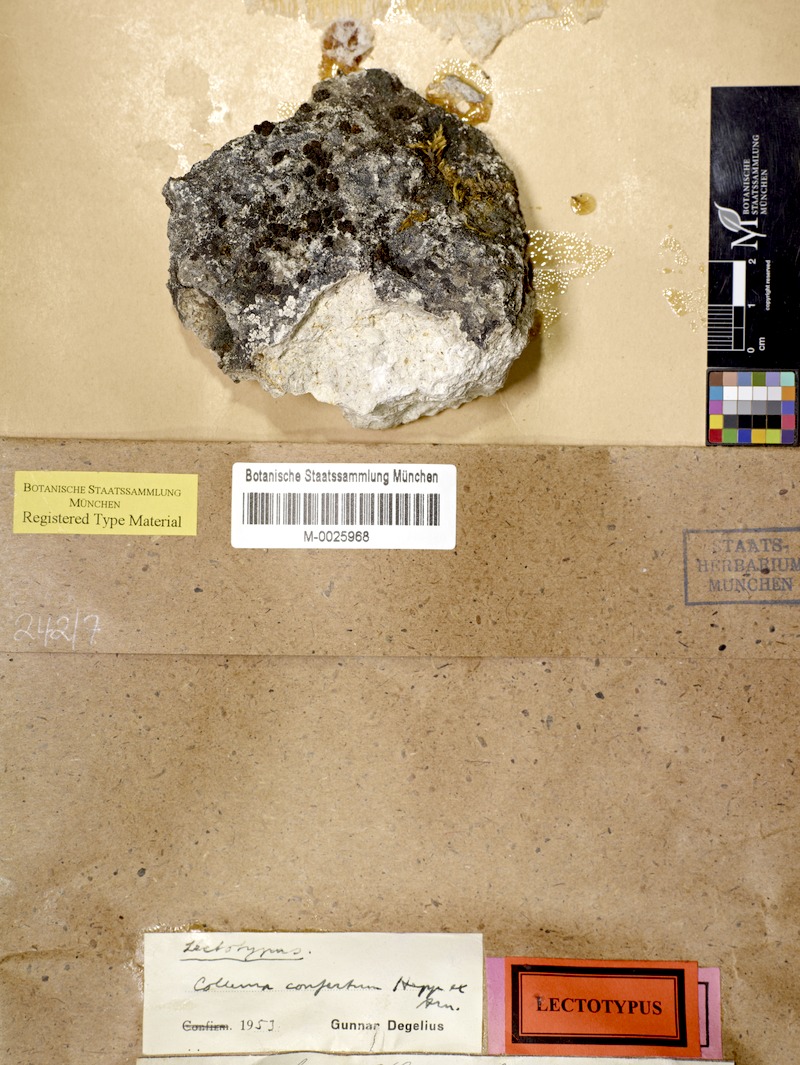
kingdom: Fungi
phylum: Ascomycota
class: Lecanoromycetes
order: Peltigerales
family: Collemataceae
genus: Enchylium
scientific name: Enchylium confertum
